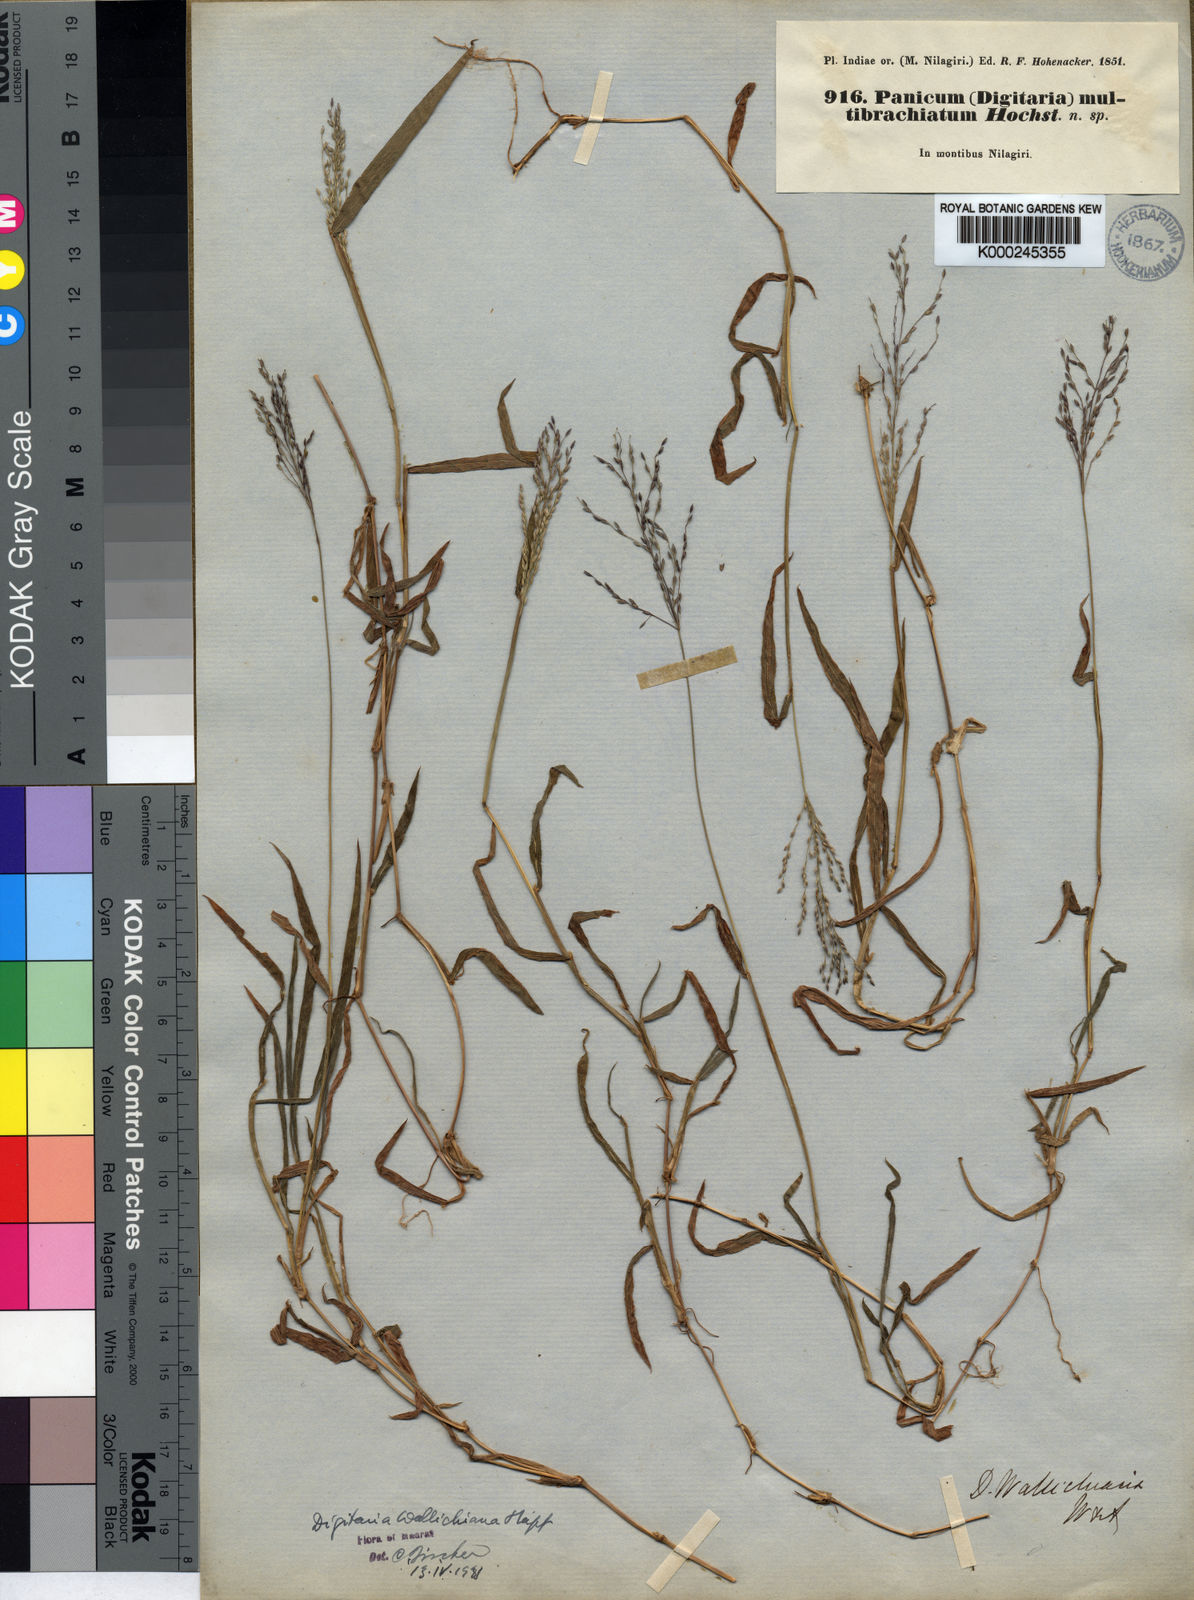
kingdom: Plantae
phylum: Tracheophyta
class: Liliopsida
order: Poales
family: Poaceae
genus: Digitaria
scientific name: Digitaria wallichiana
